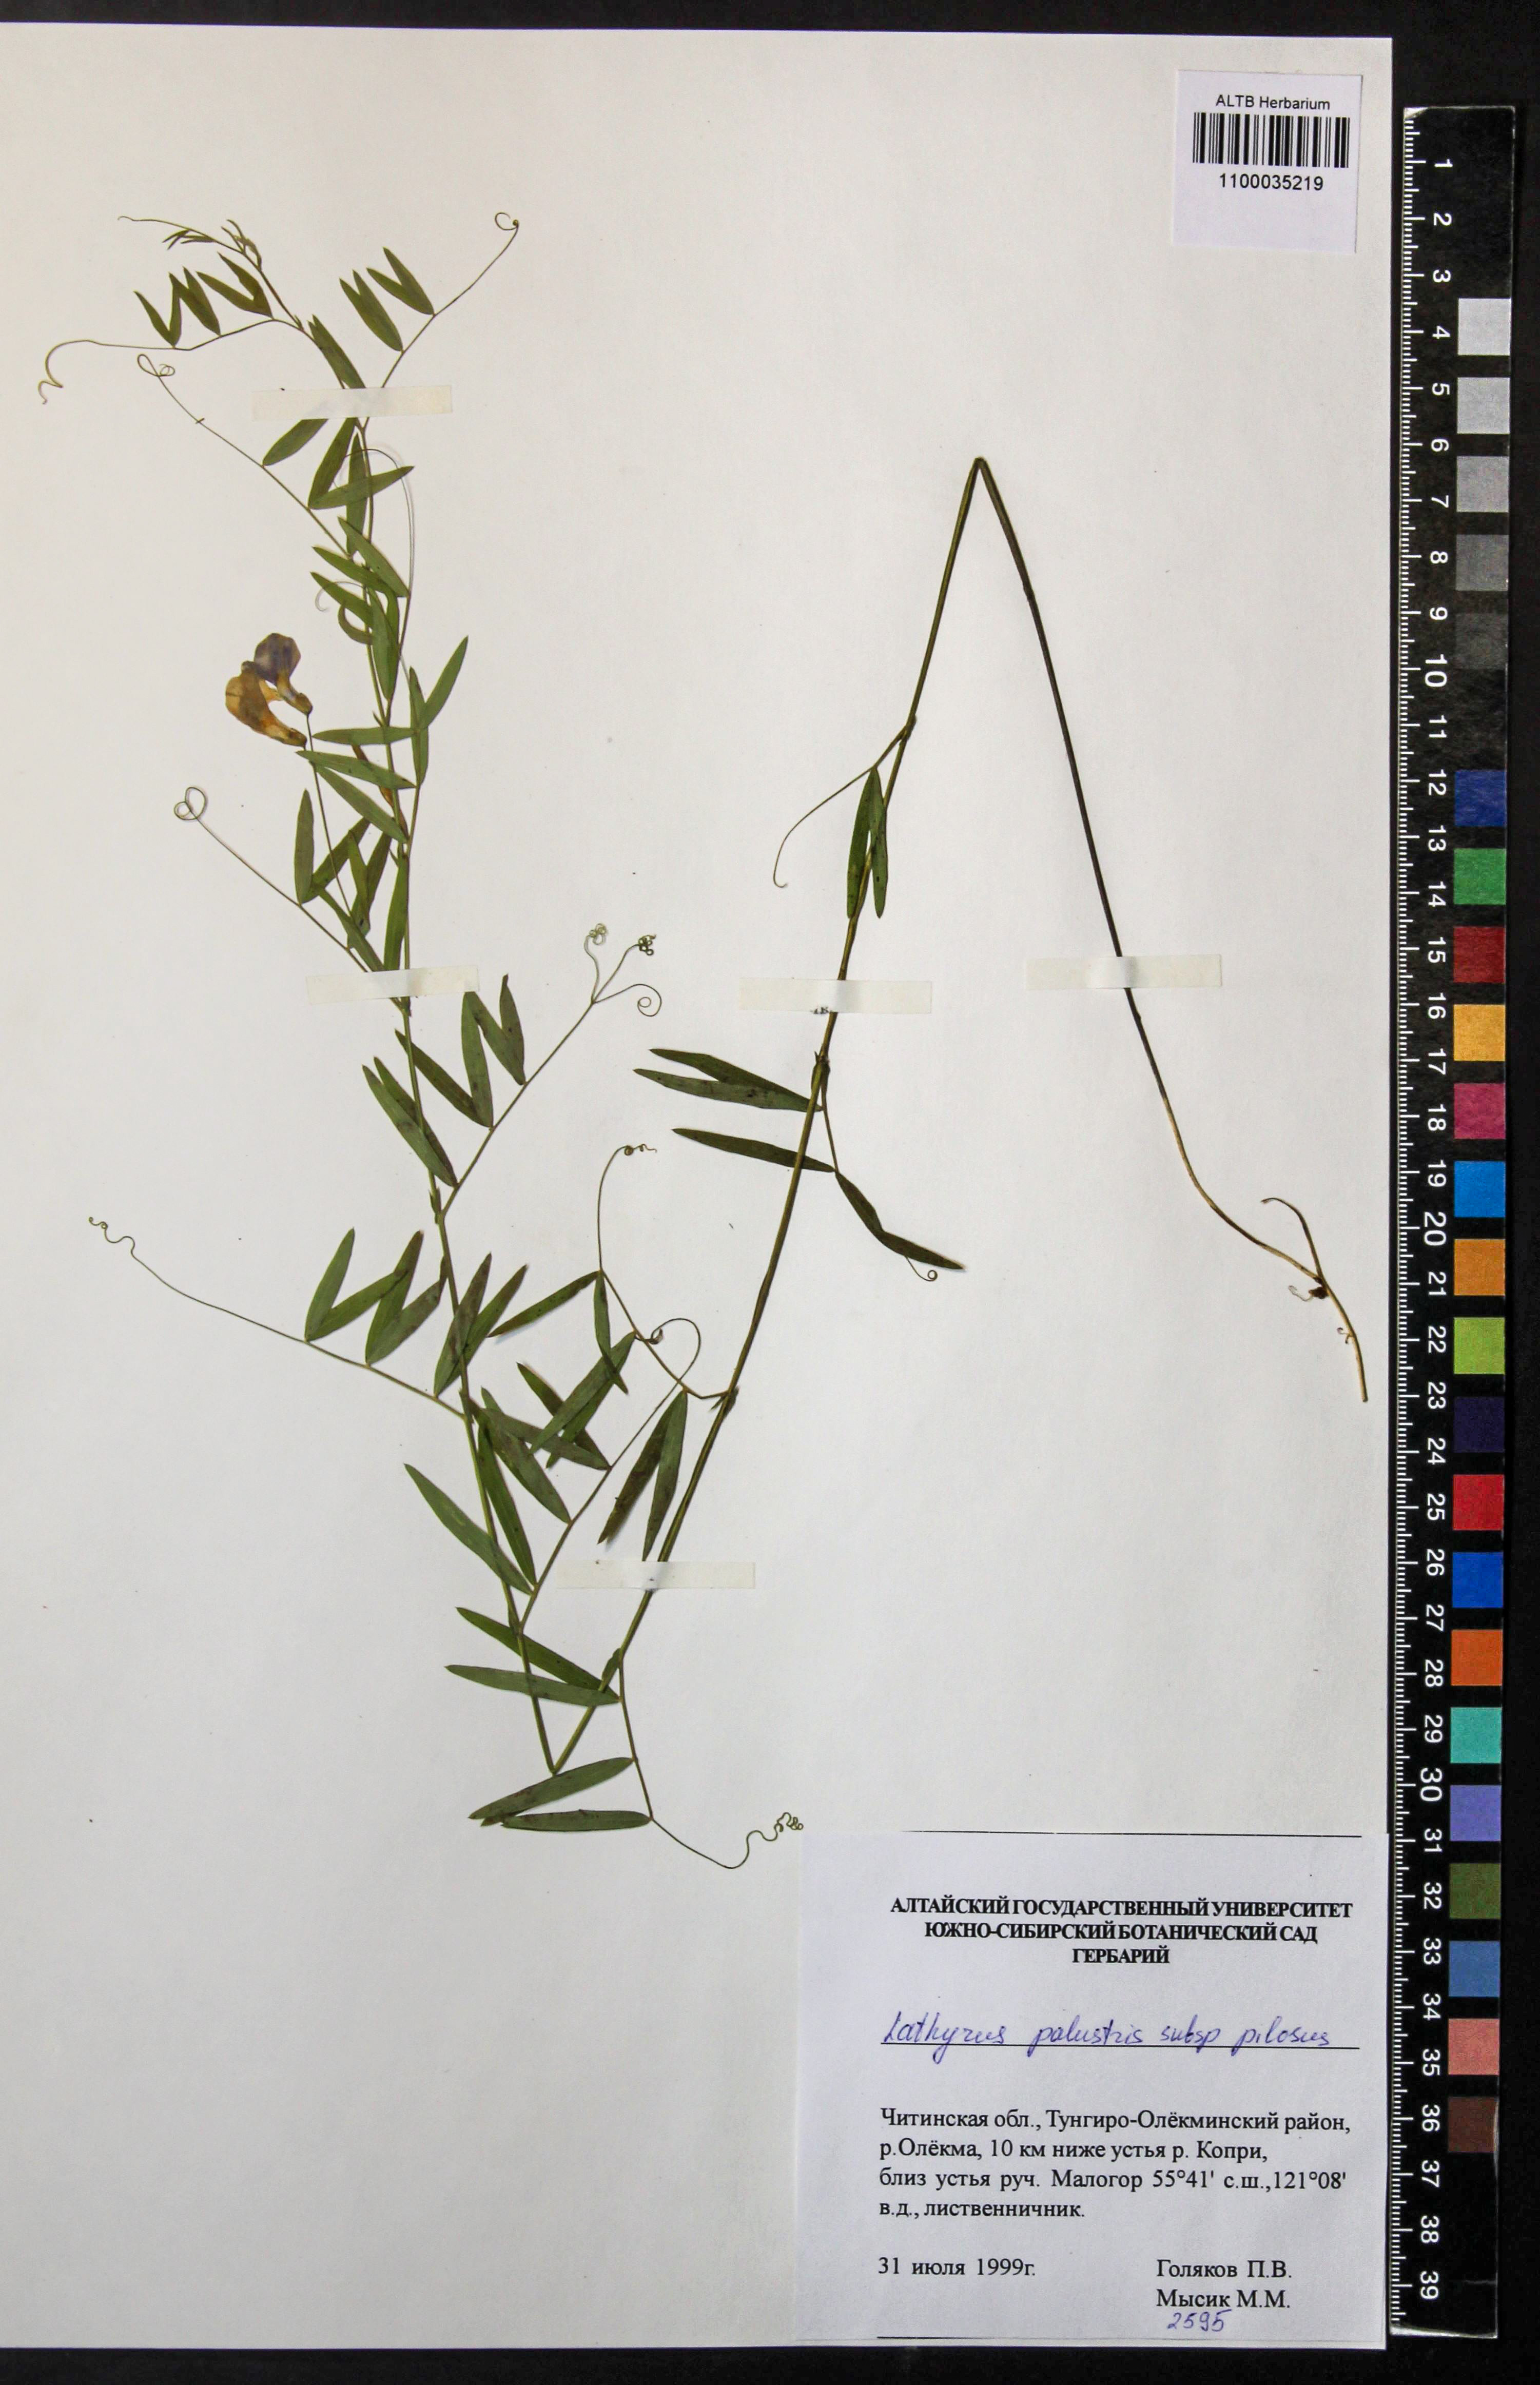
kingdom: Plantae
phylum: Tracheophyta
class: Magnoliopsida
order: Fabales
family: Fabaceae
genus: Lathyrus
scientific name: Lathyrus palustris
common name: Marsh pea
